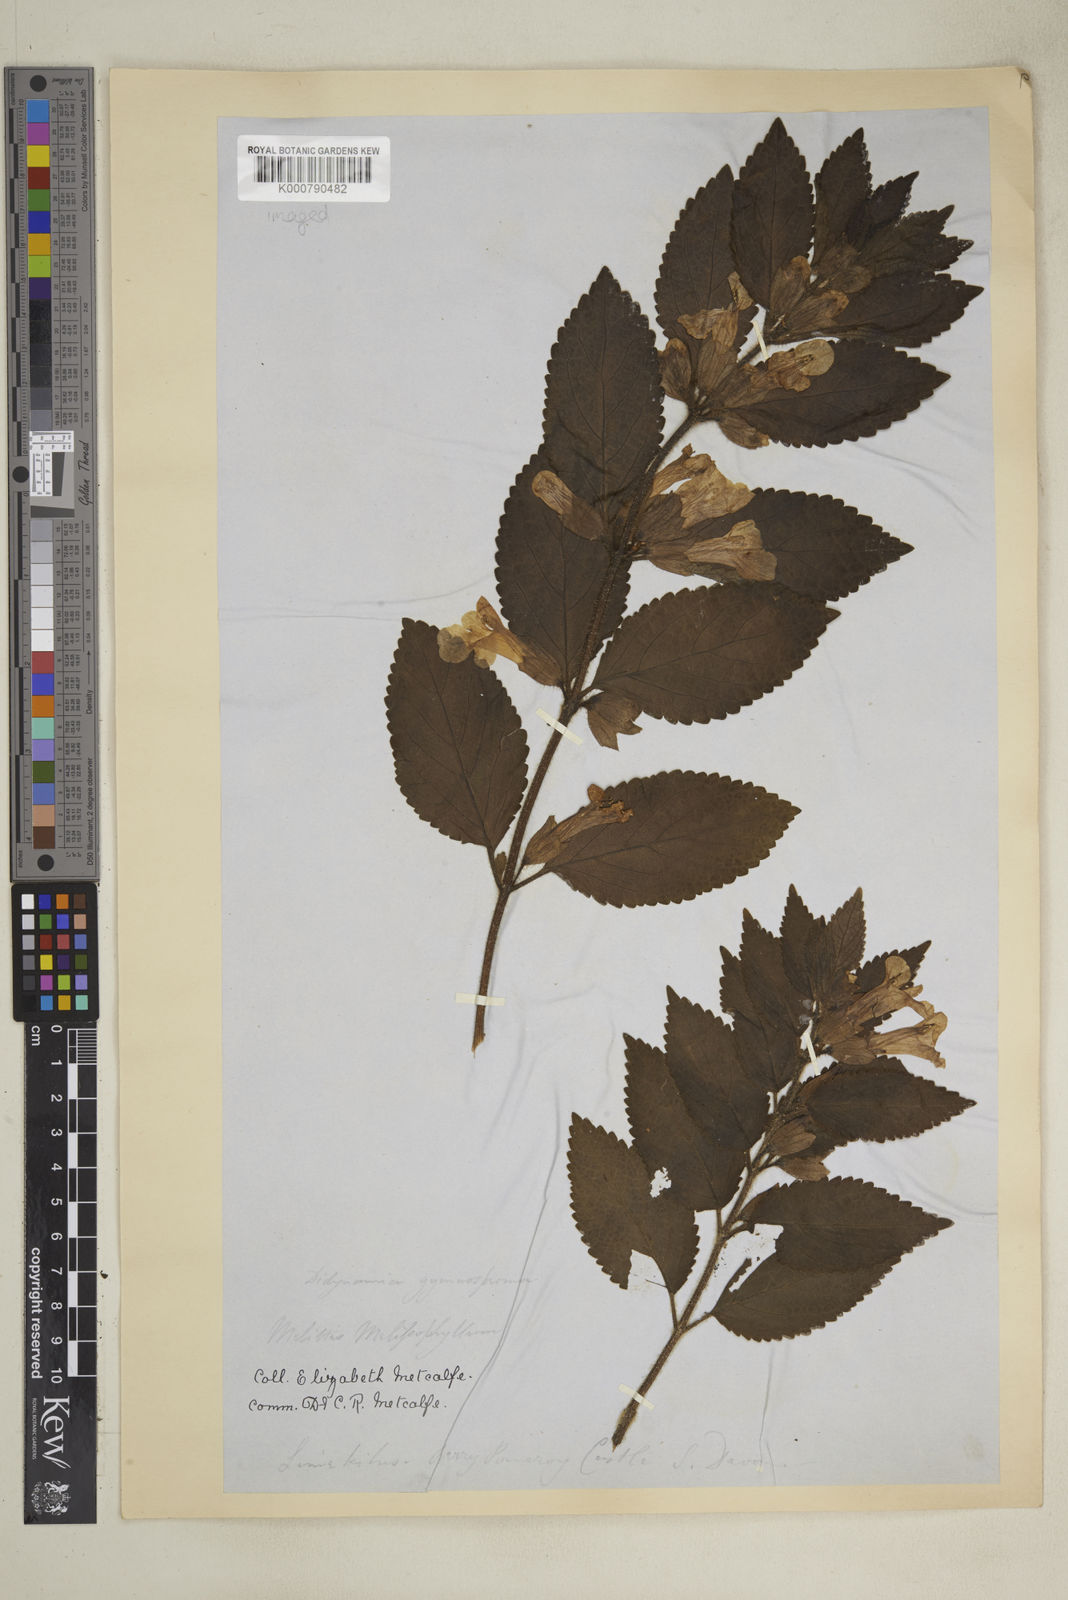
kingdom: Plantae
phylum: Tracheophyta
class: Magnoliopsida
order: Lamiales
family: Lamiaceae
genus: Melittis
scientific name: Melittis melissophyllum
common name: Bastard balm
